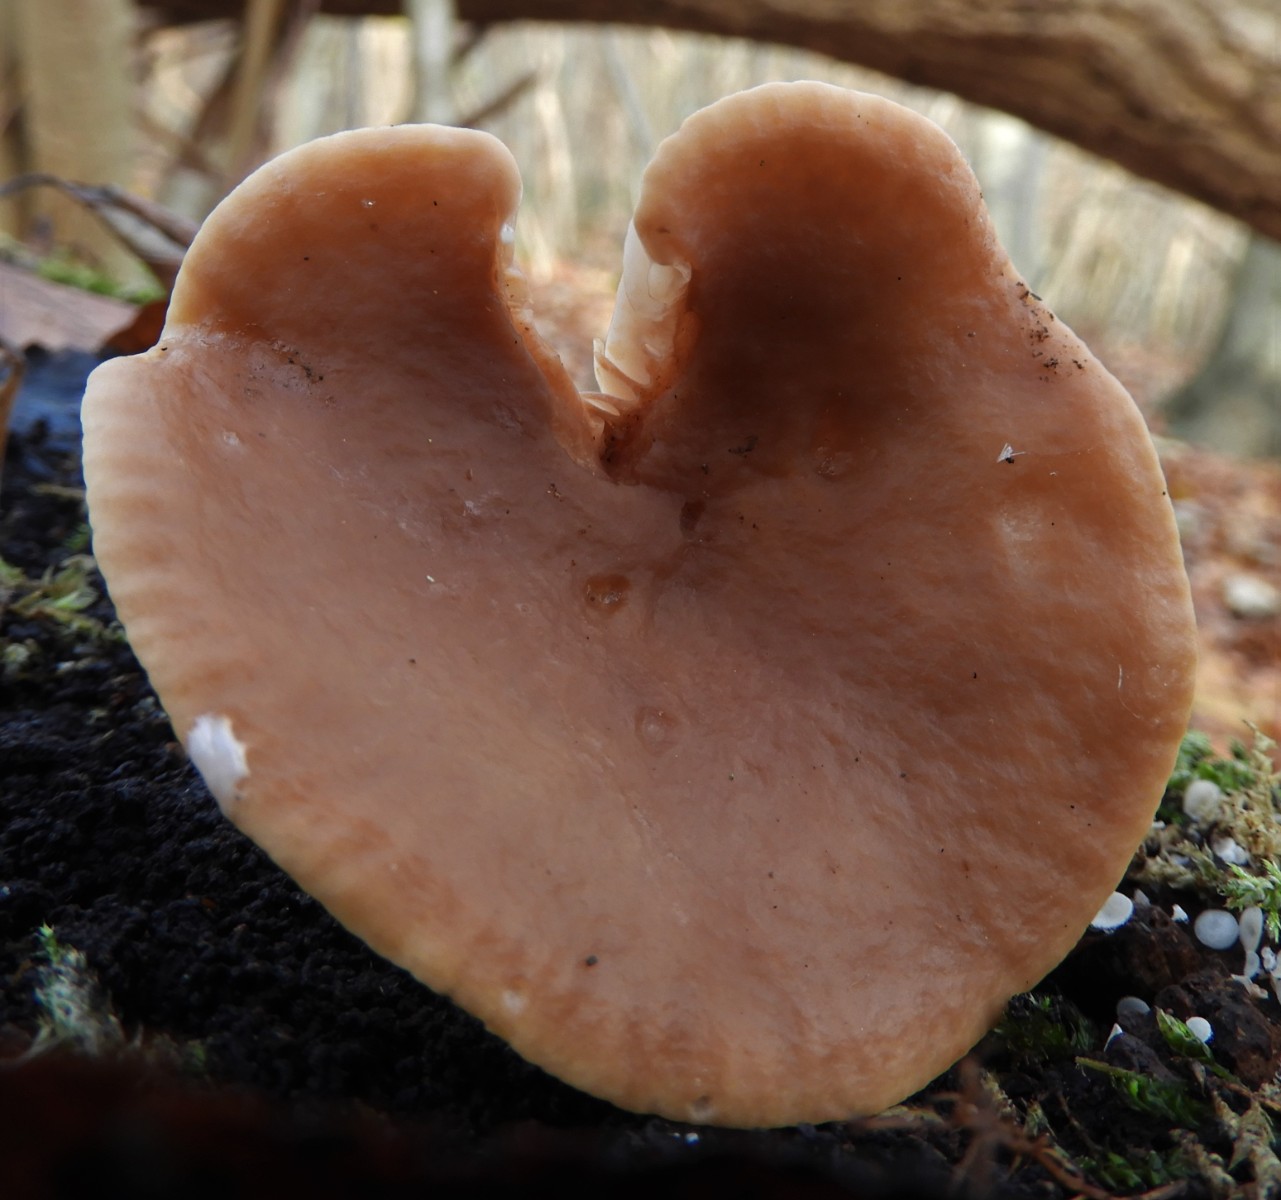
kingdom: Fungi
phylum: Basidiomycota
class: Agaricomycetes
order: Russulales
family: Russulaceae
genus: Lactarius
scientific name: Lactarius subdulcis
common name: sødlig mælkehat
